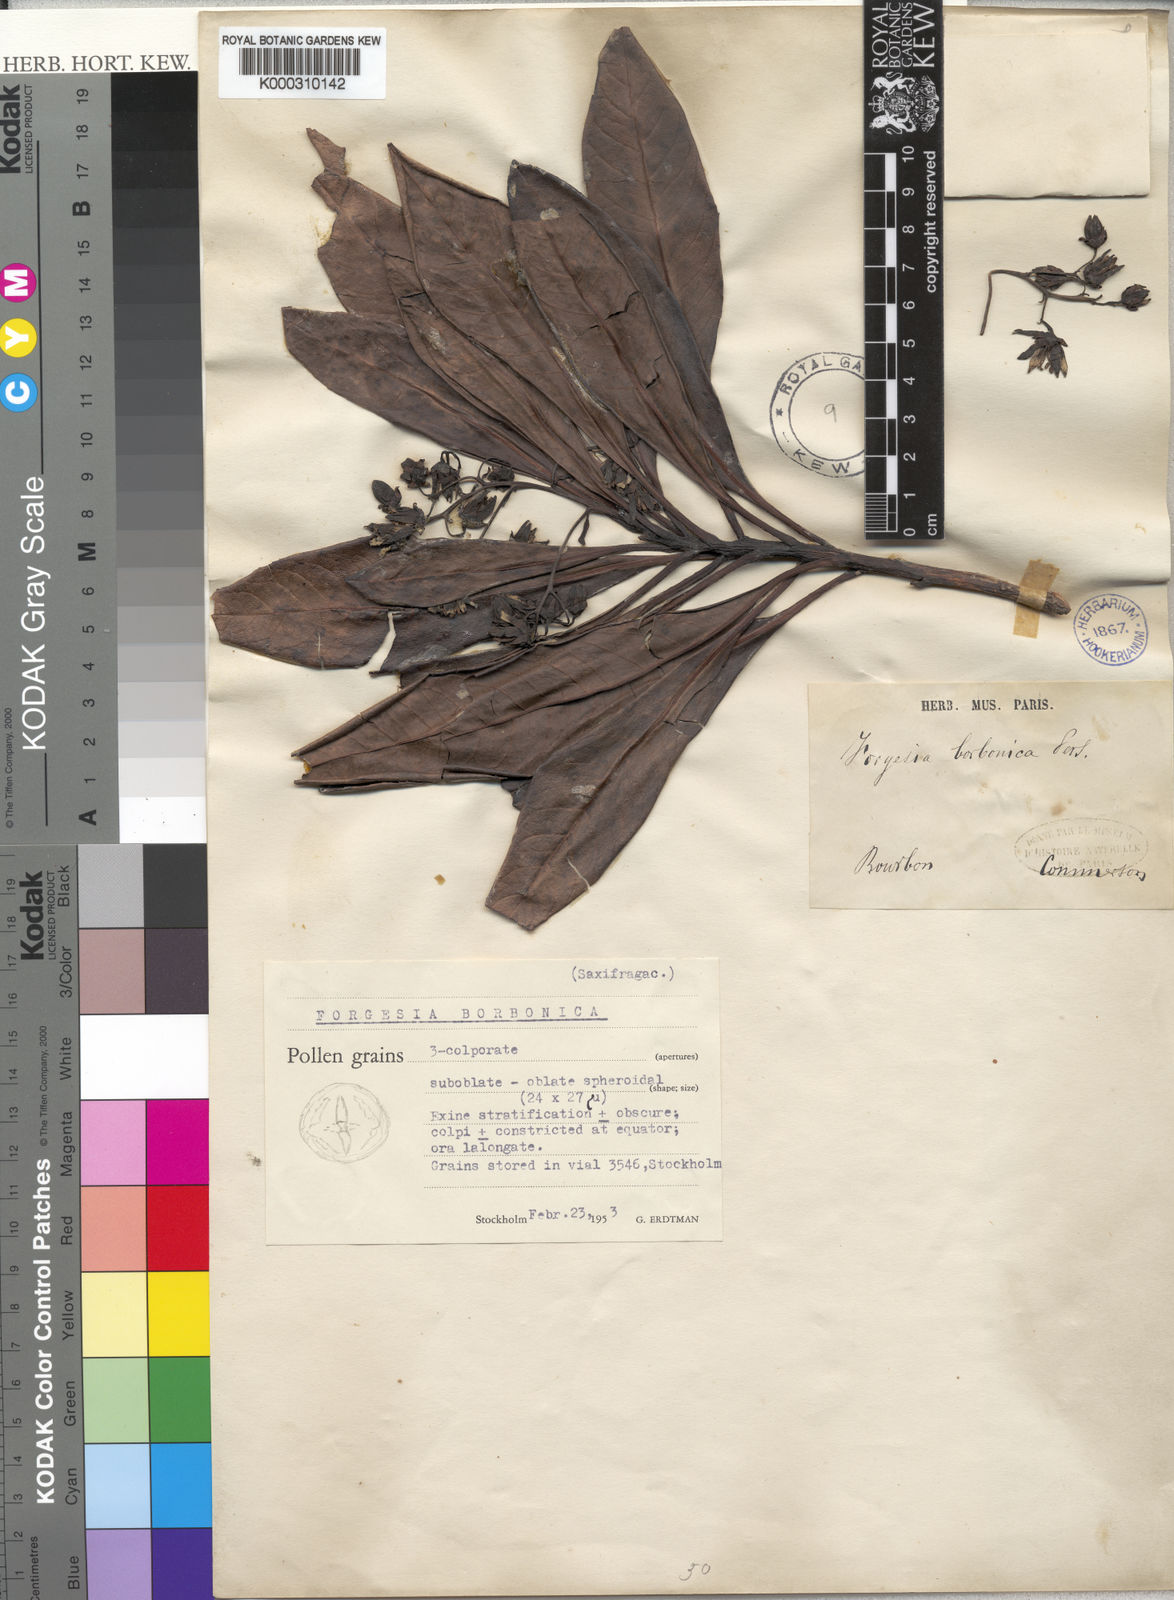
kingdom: Plantae
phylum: Tracheophyta
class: Magnoliopsida
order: Escalloniales
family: Escalloniaceae
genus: Forgesia
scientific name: Forgesia
